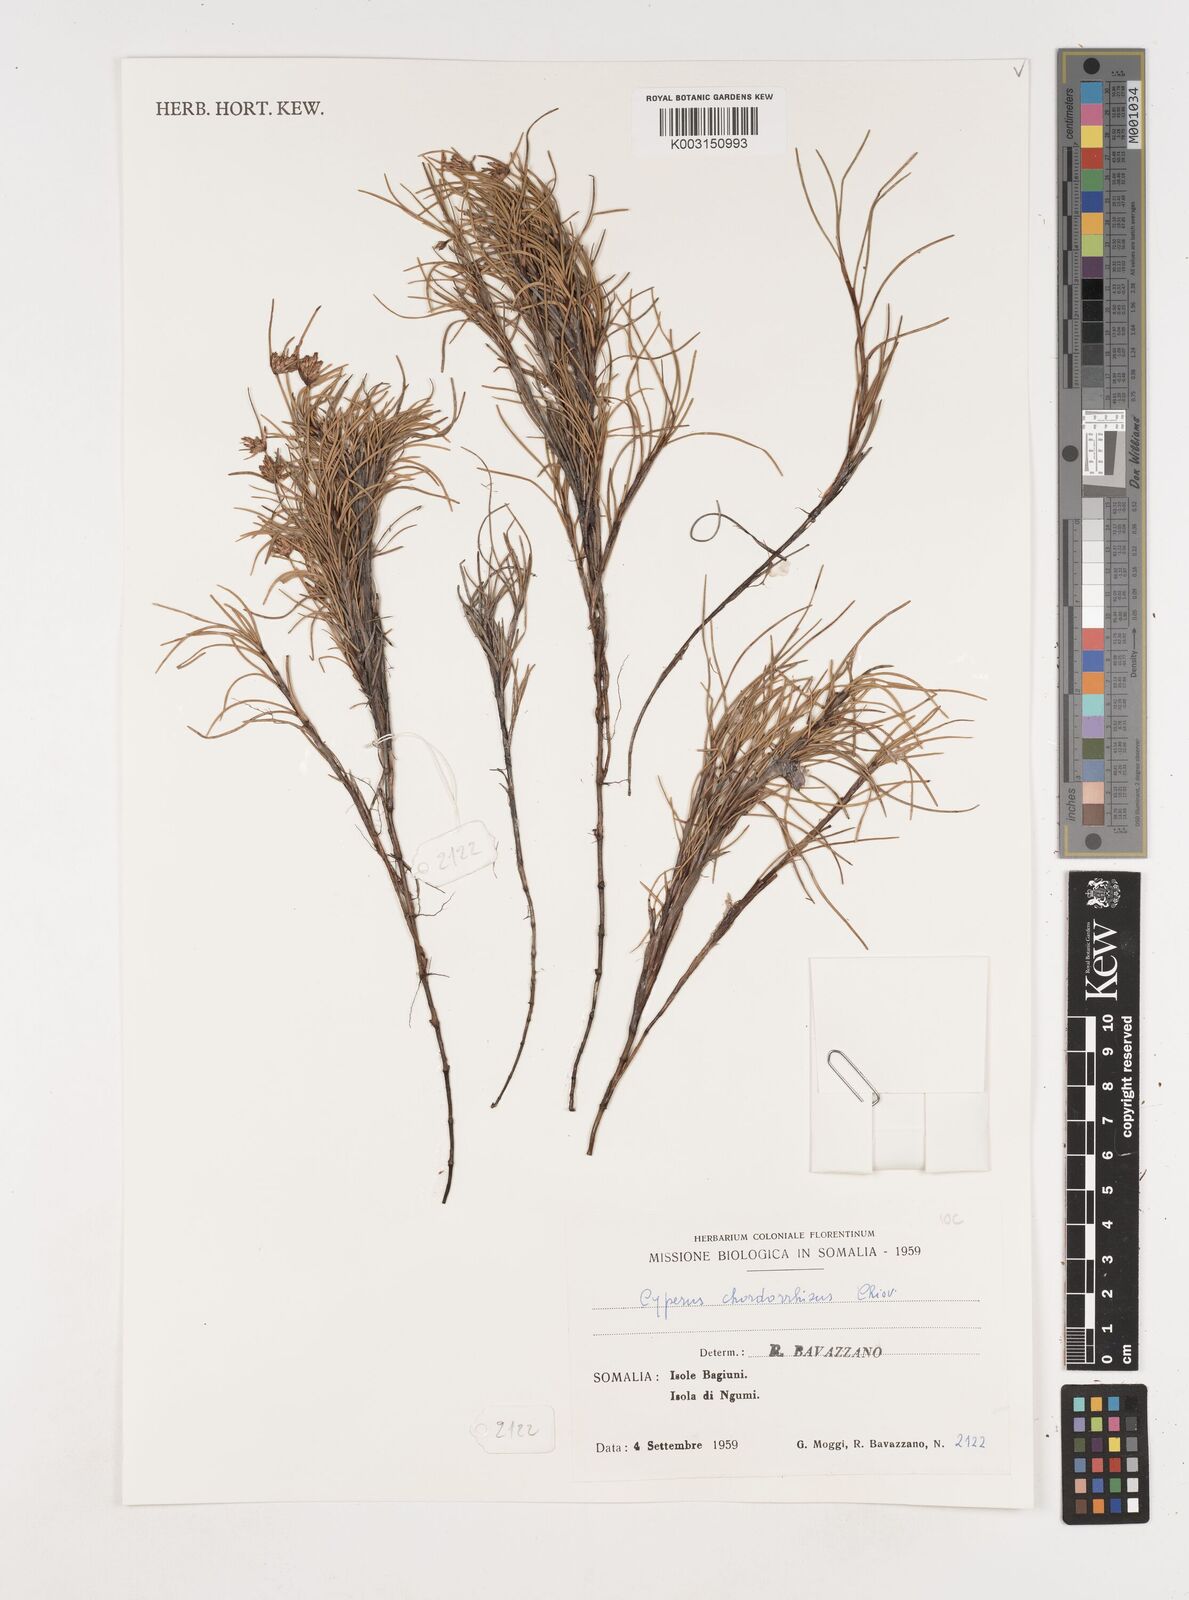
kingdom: Plantae
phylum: Tracheophyta
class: Liliopsida
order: Poales
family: Cyperaceae
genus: Cyperus
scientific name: Cyperus chordorrhizus
